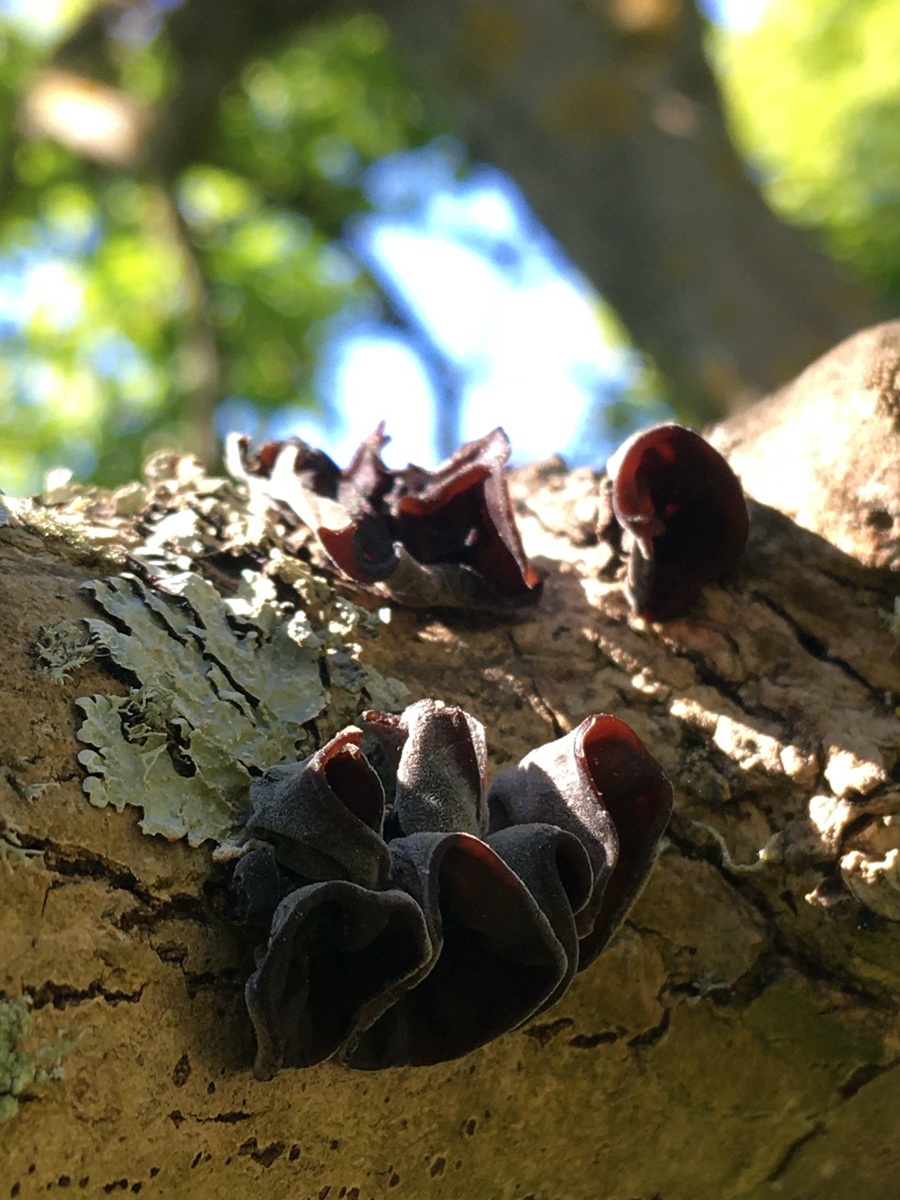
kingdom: Fungi
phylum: Basidiomycota
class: Agaricomycetes
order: Auriculariales
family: Auriculariaceae
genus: Auricularia
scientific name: Auricularia auricula-judae
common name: almindelig judasøre
